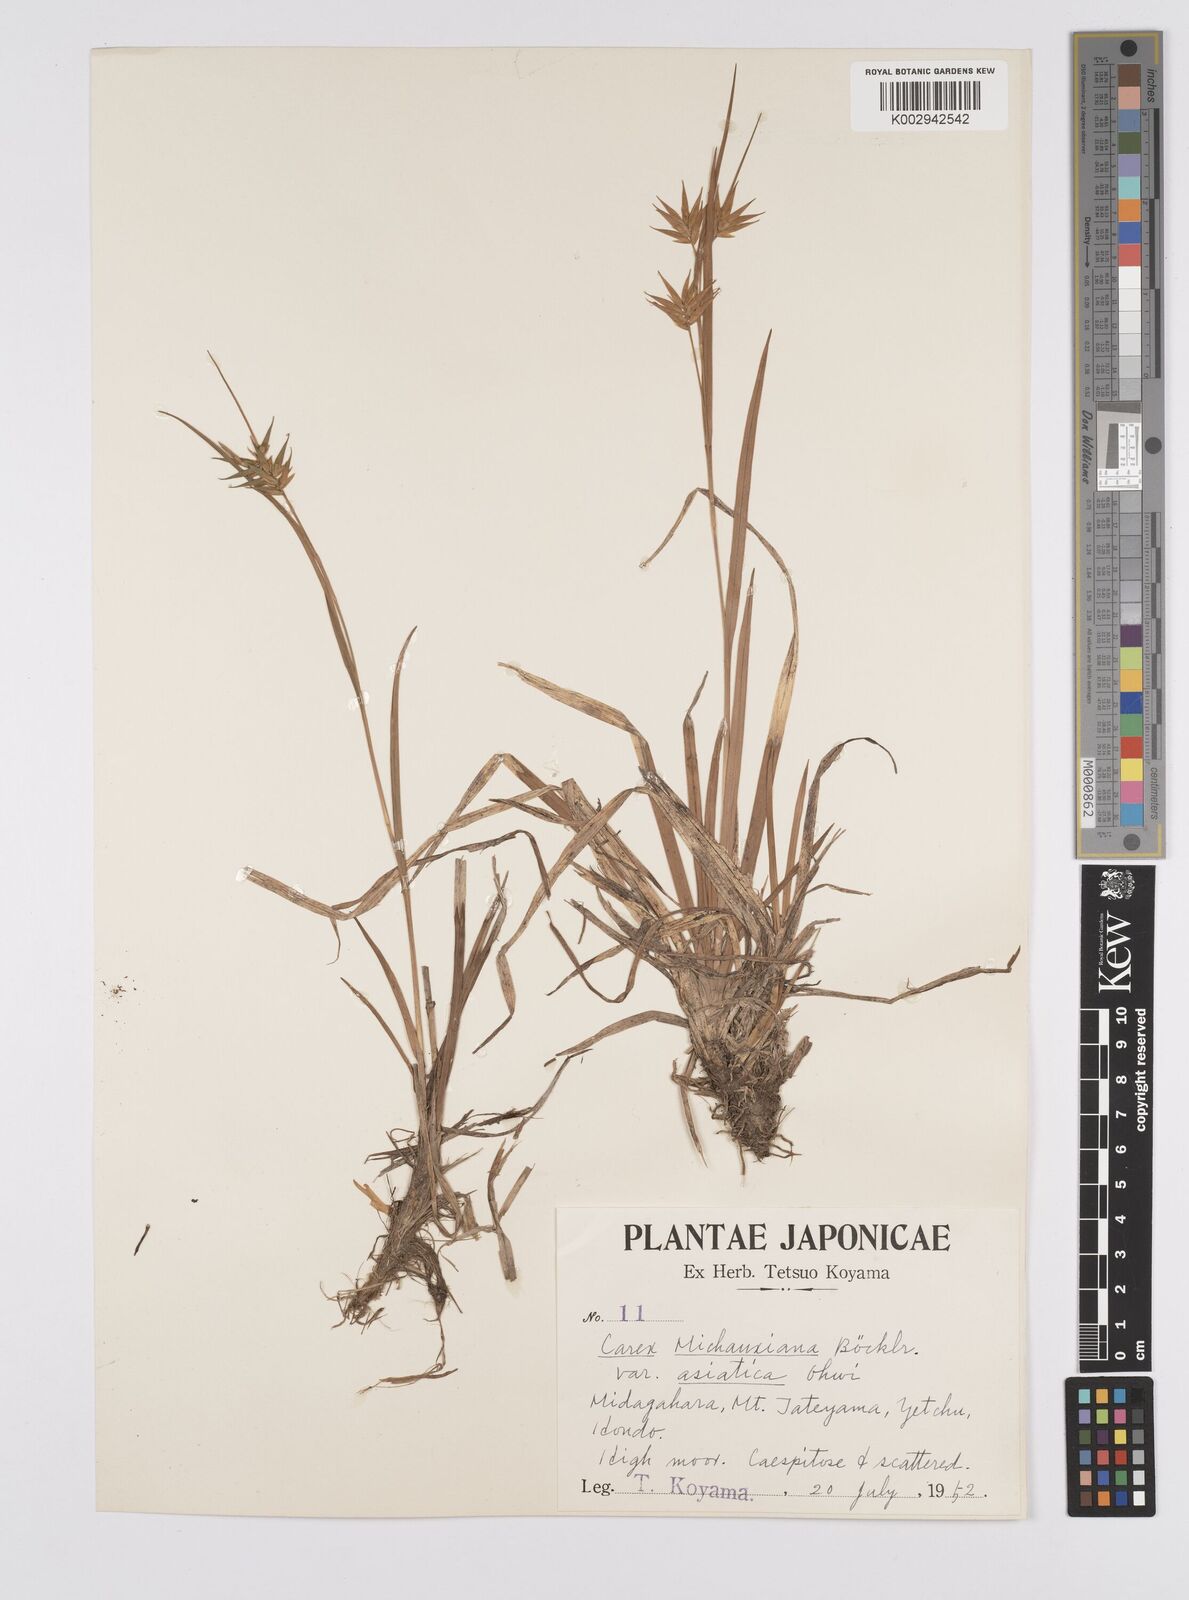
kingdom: Plantae
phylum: Tracheophyta
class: Liliopsida
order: Poales
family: Cyperaceae
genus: Carex
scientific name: Carex michauxiana
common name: Michaux's sedge
